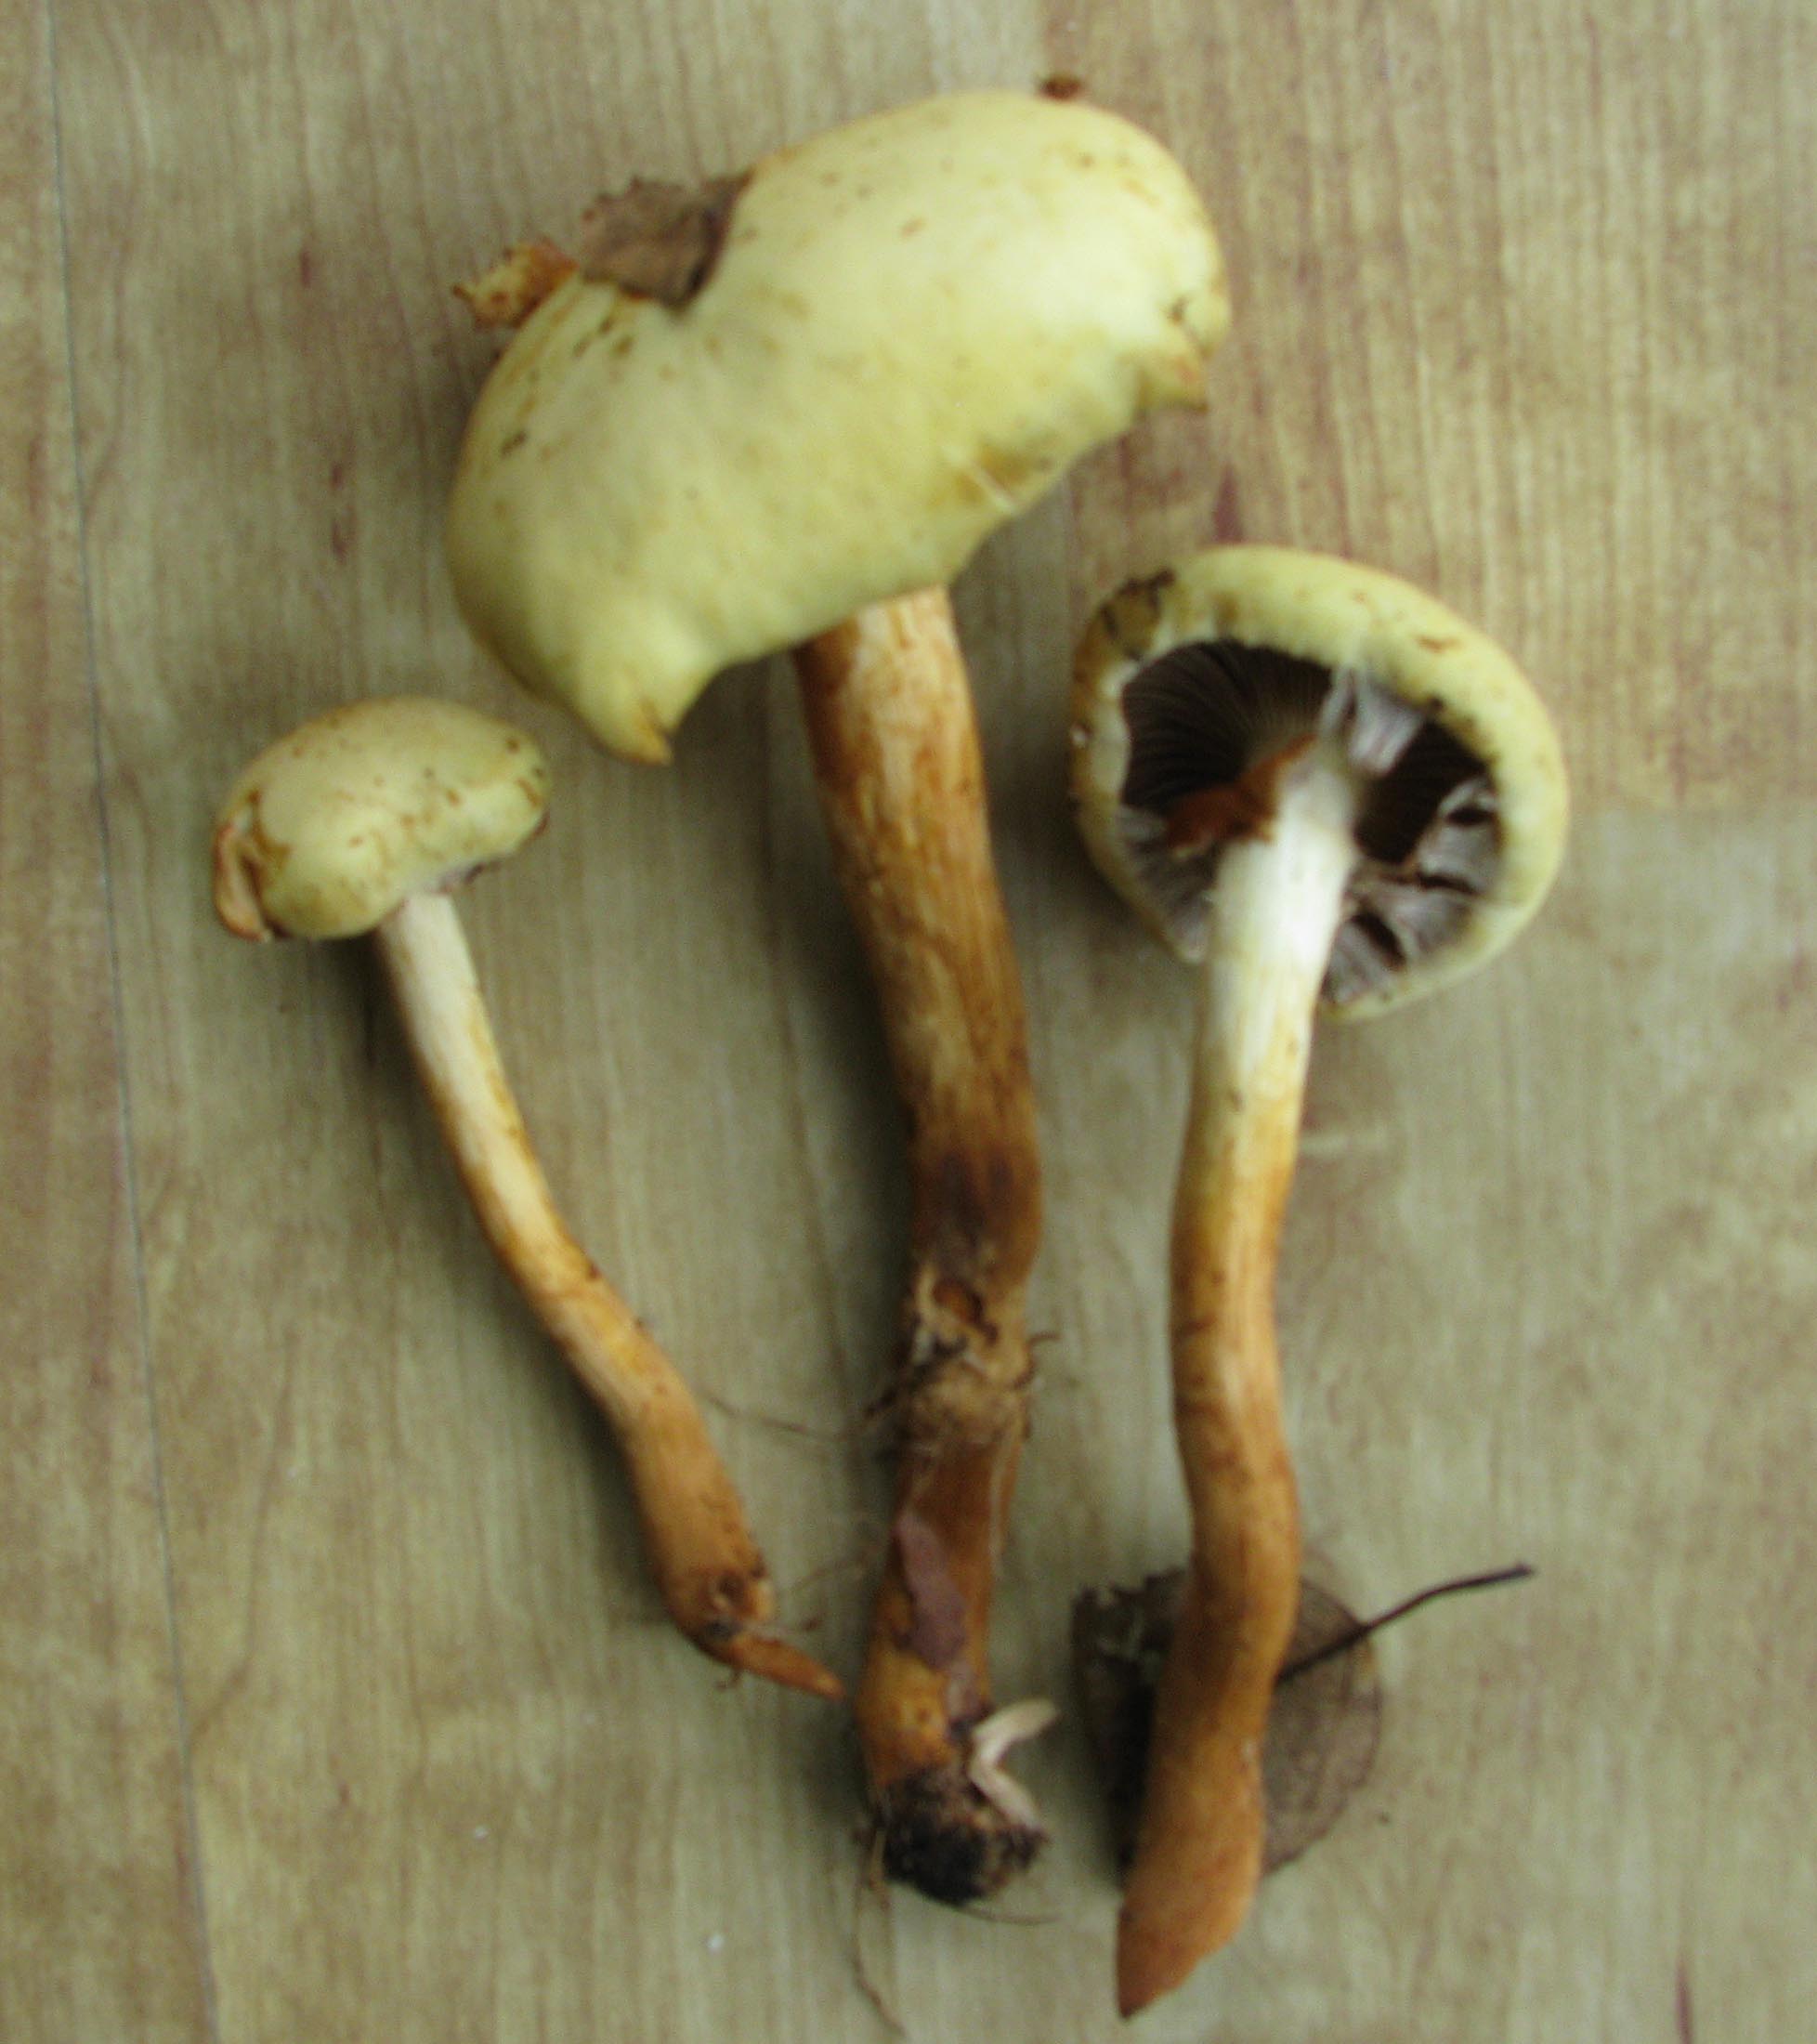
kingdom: Fungi
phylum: Basidiomycota
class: Agaricomycetes
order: Agaricales
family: Hymenogastraceae
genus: Flammula
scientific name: Flammula alnicola
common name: elle-skælhat
